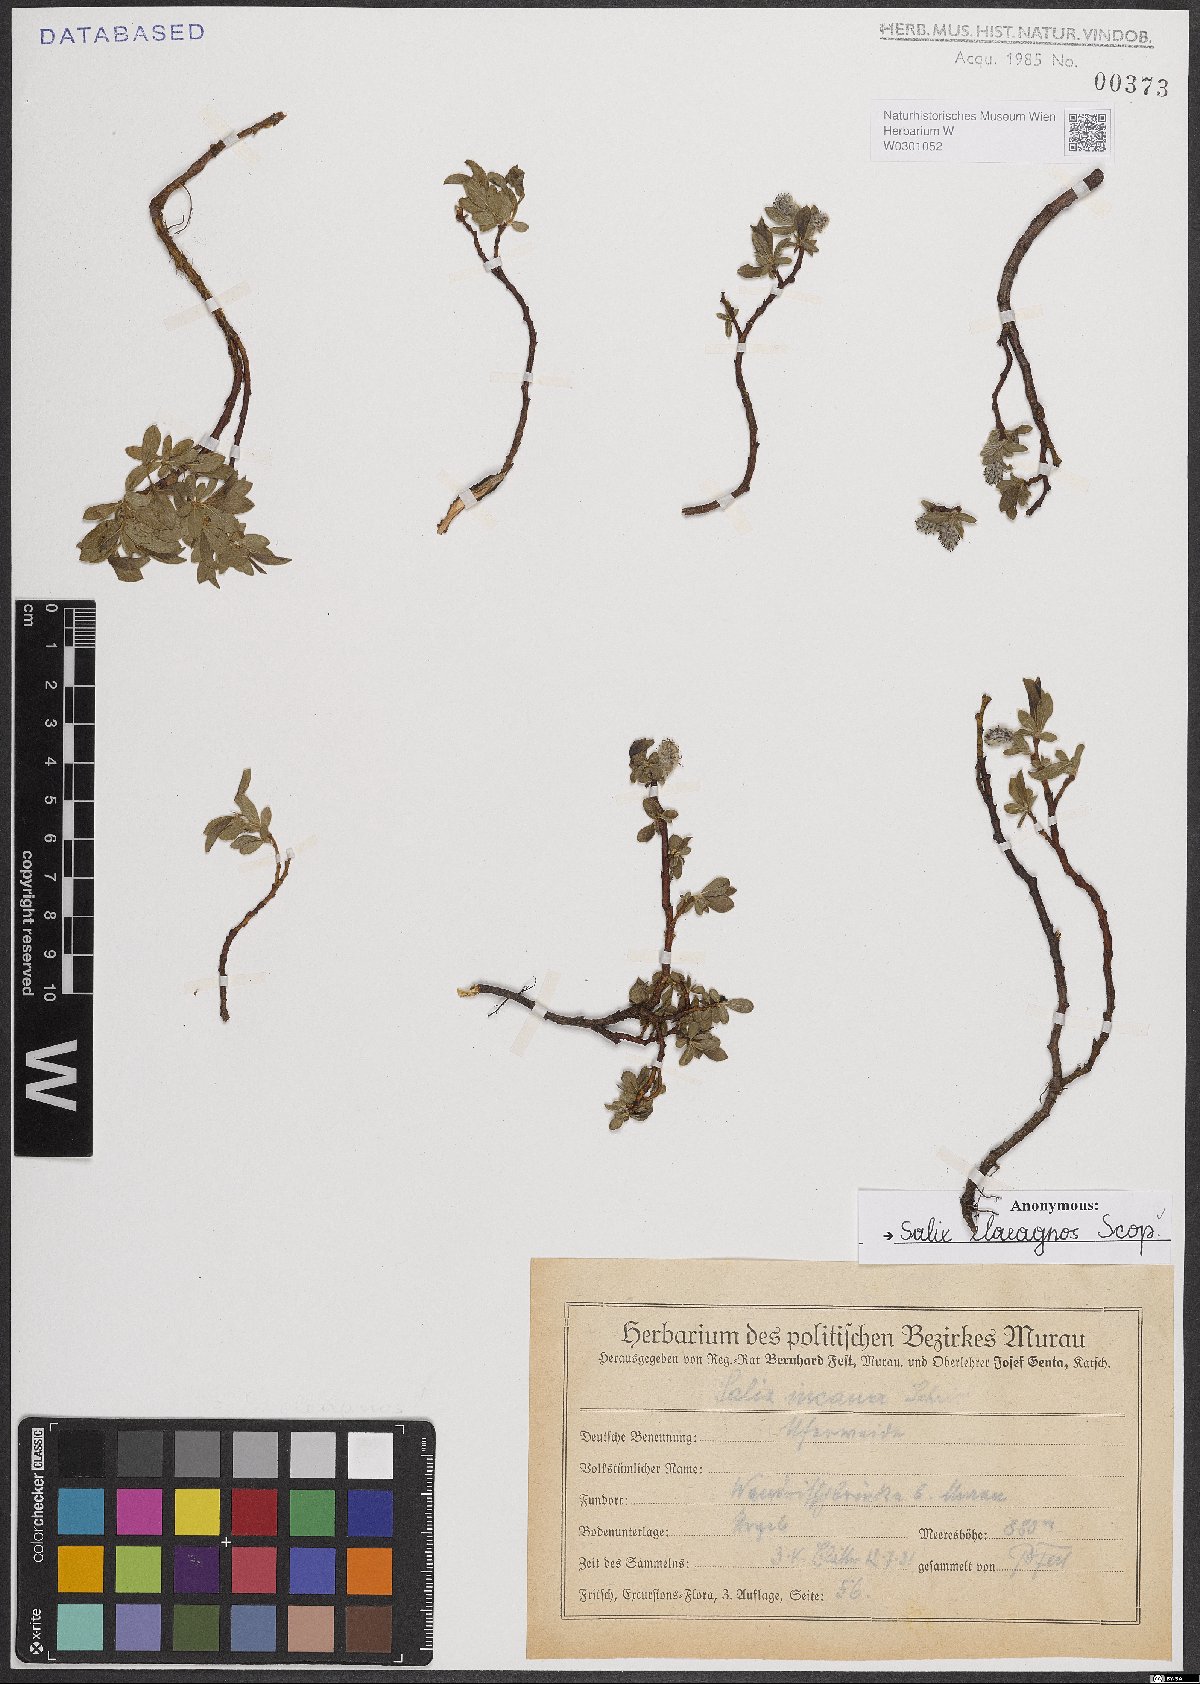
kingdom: Plantae
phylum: Tracheophyta
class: Magnoliopsida
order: Malpighiales
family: Salicaceae
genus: Salix
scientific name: Salix eleagnos
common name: Elaeagnus willow
